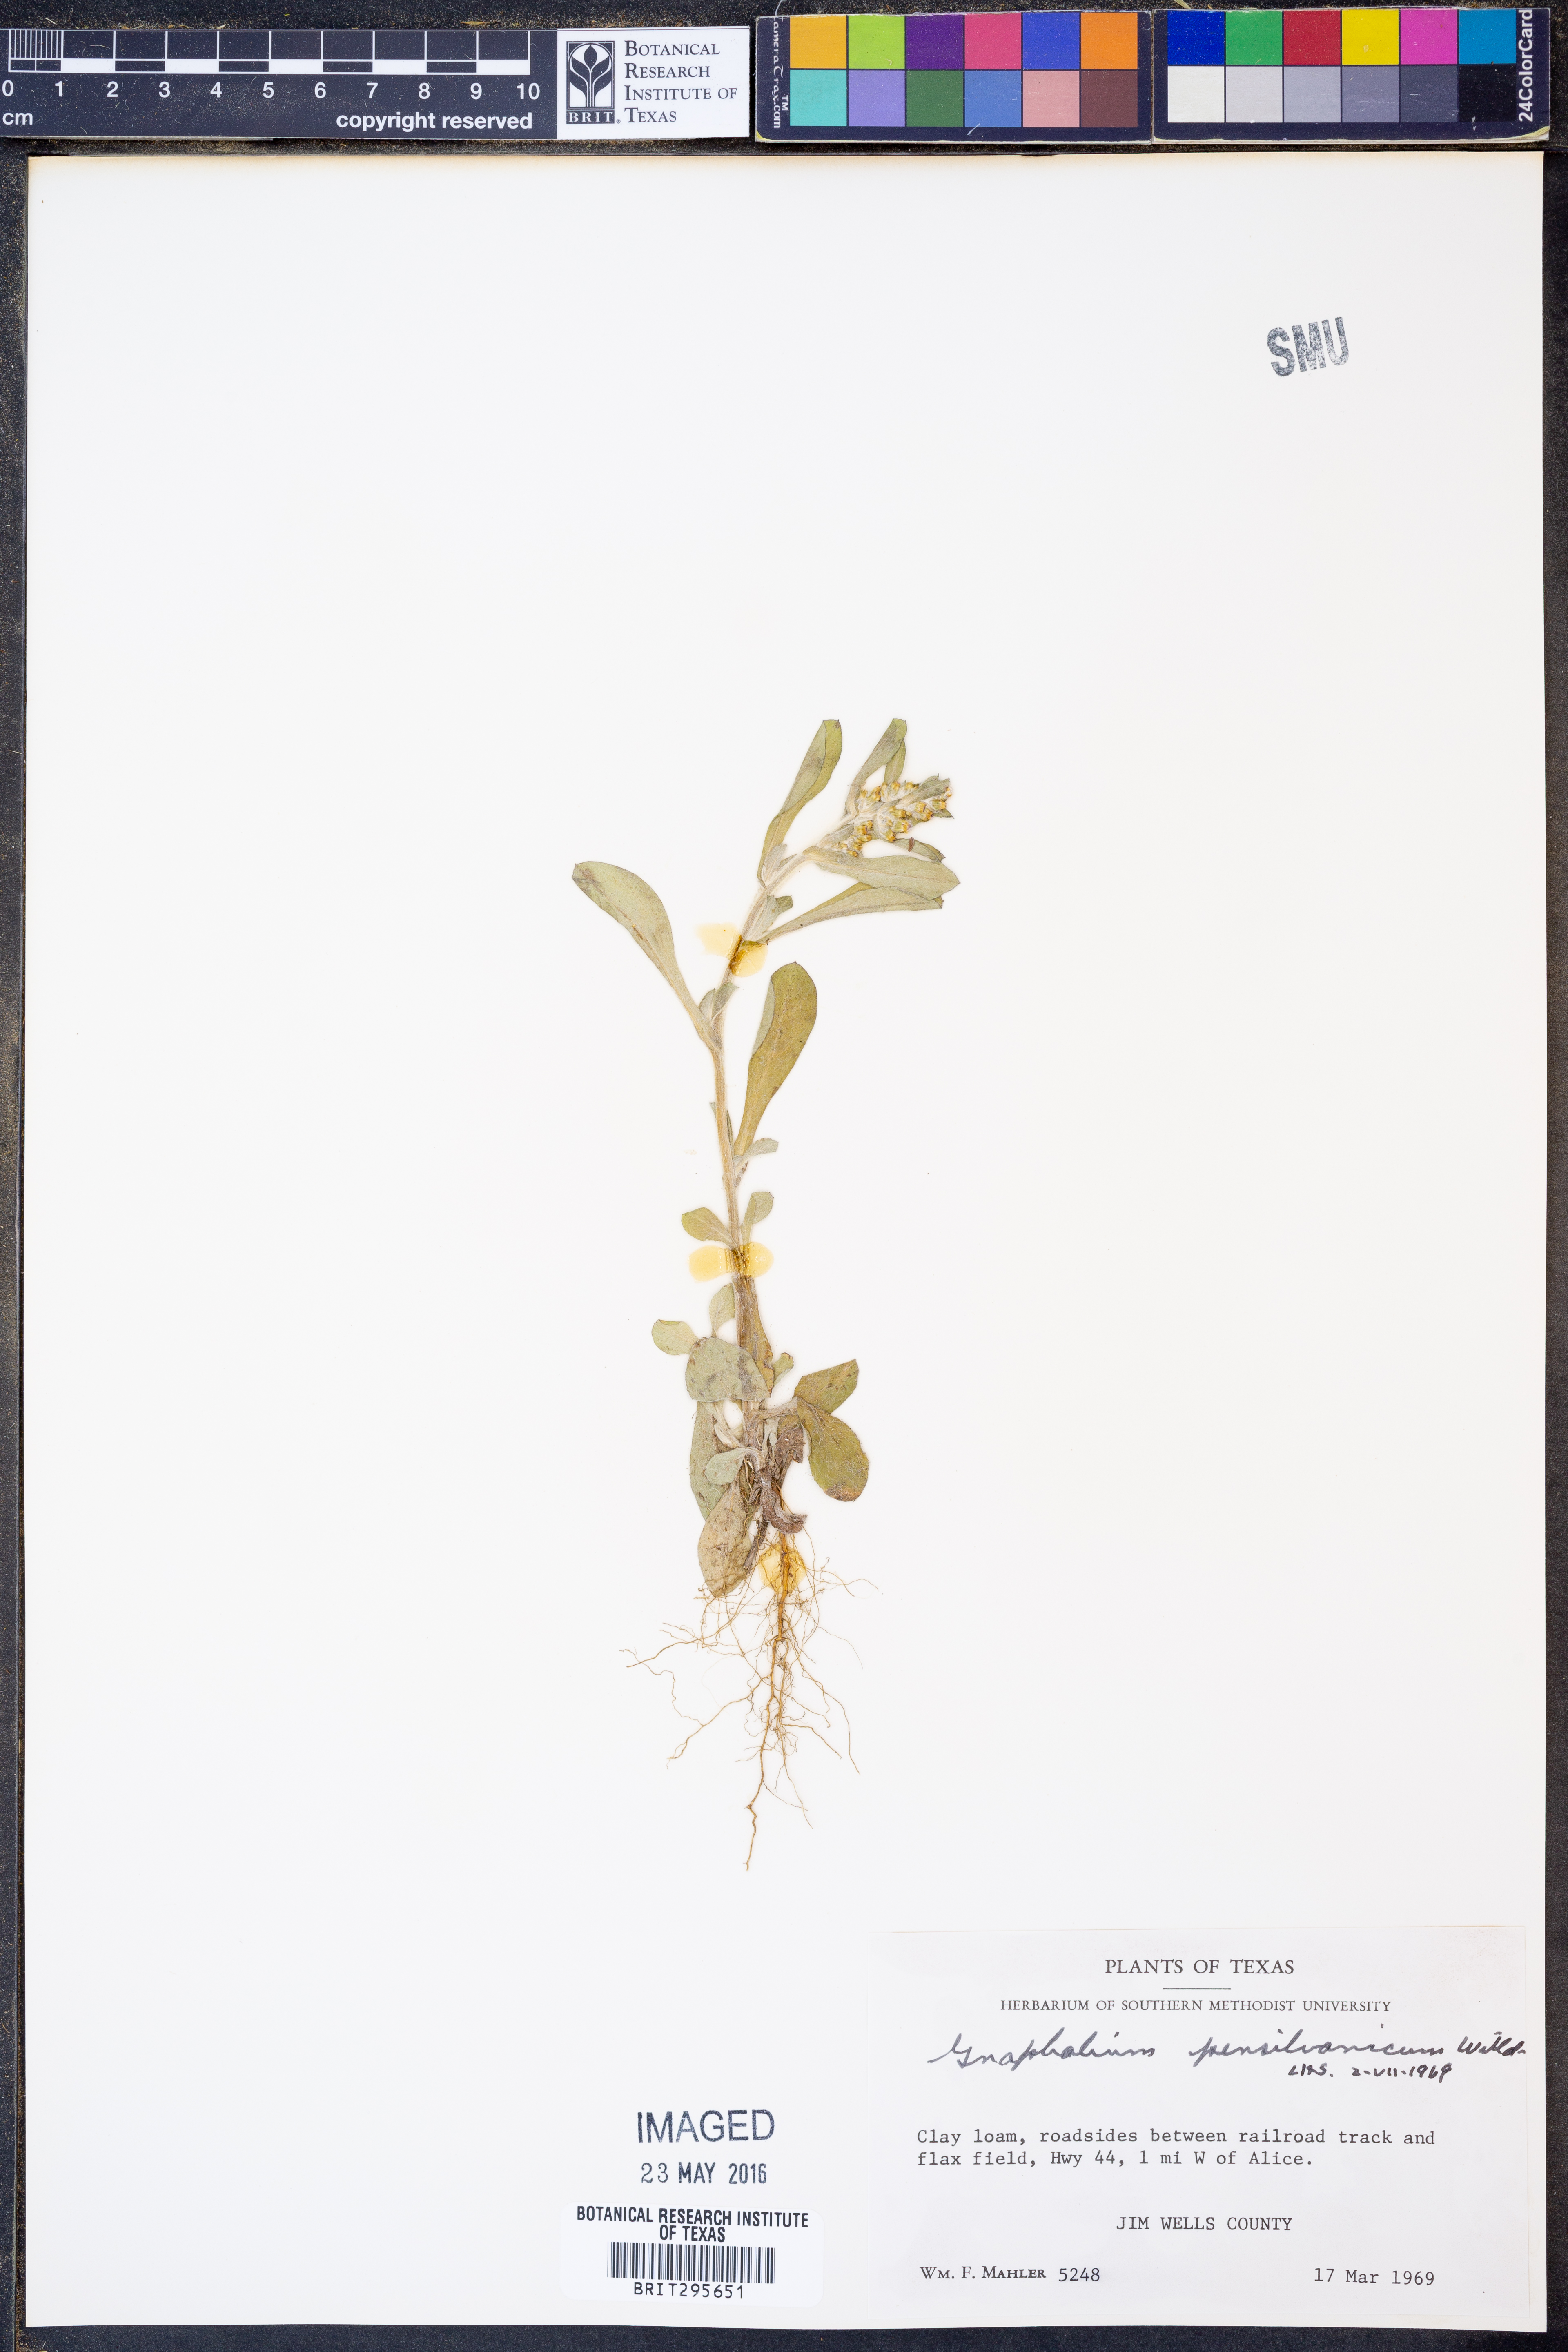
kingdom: Plantae
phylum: Tracheophyta
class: Magnoliopsida
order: Asterales
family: Asteraceae
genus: Gamochaeta
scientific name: Gamochaeta pensylvanica
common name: Pennsylvania everlasting
